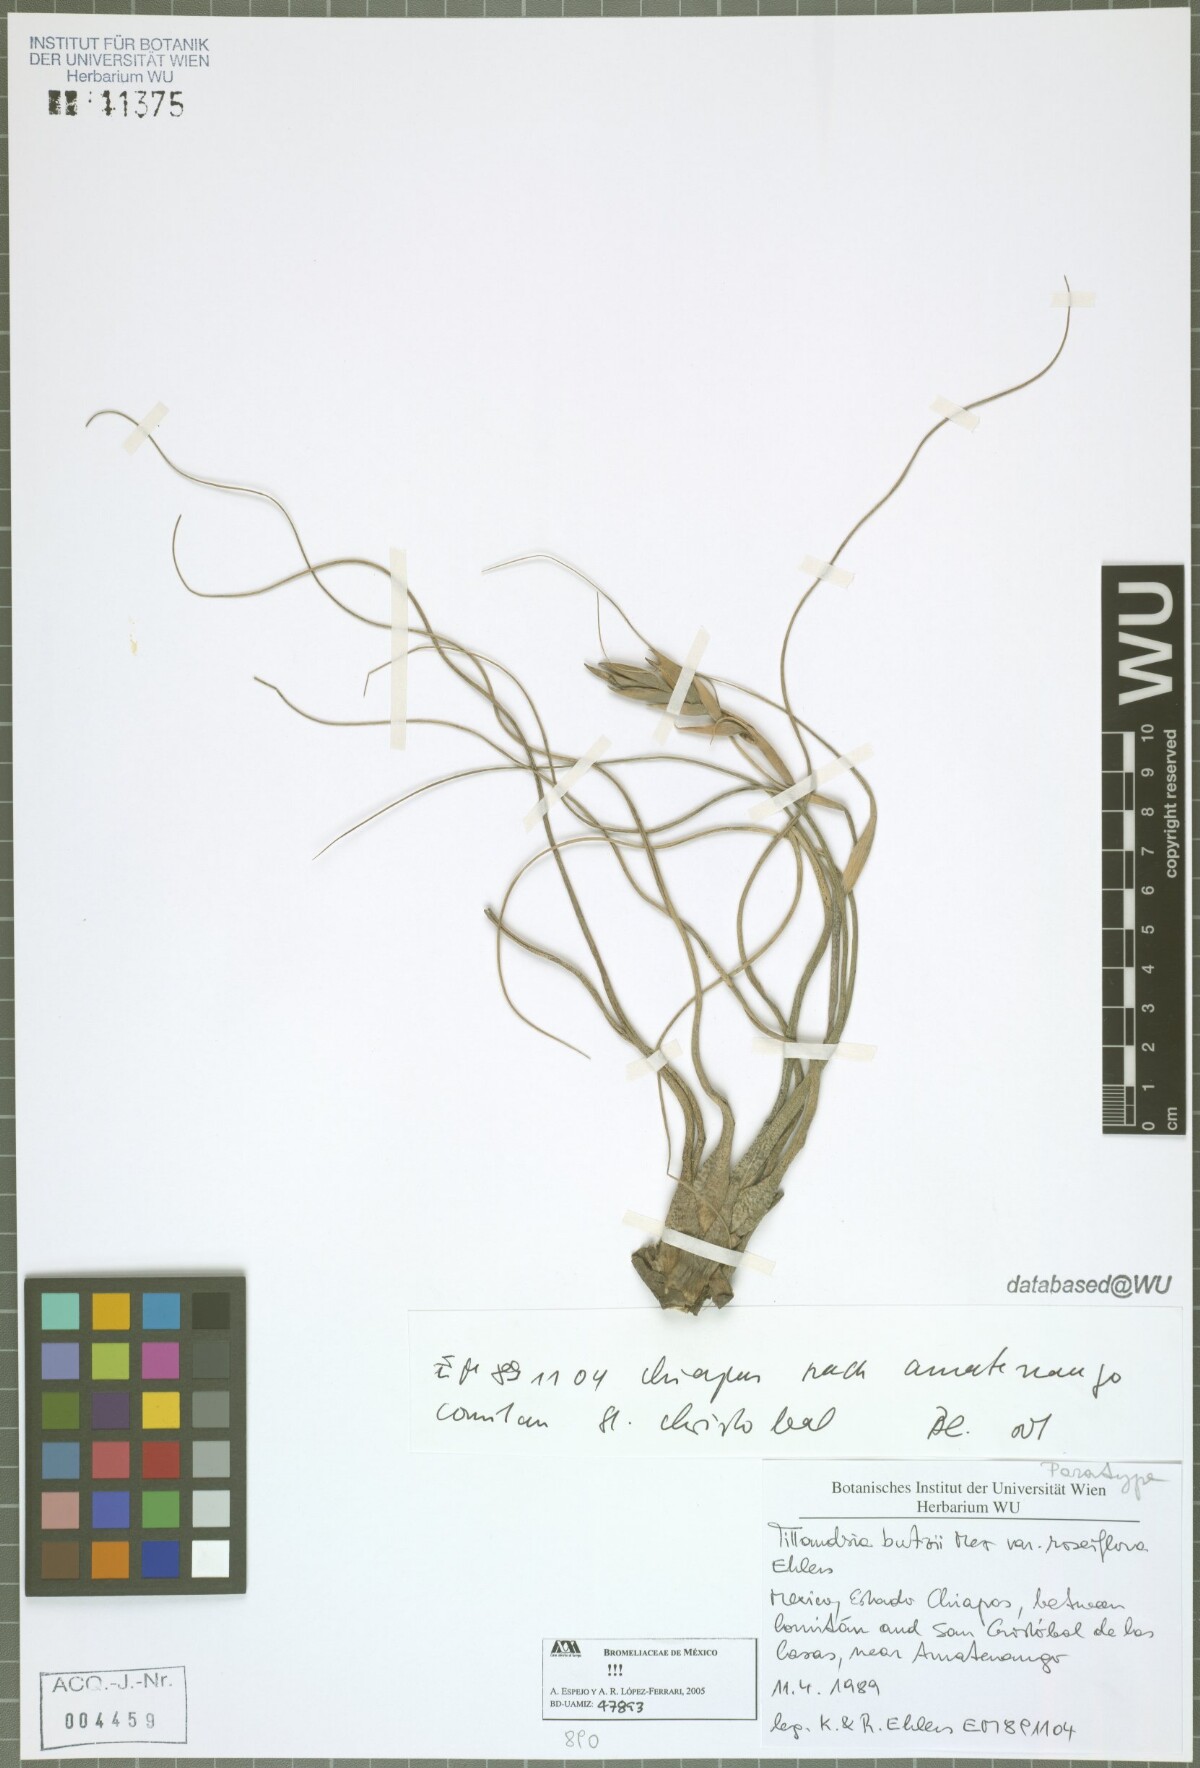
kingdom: Plantae
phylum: Tracheophyta
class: Liliopsida
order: Poales
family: Bromeliaceae
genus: Tillandsia
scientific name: Tillandsia butzii
